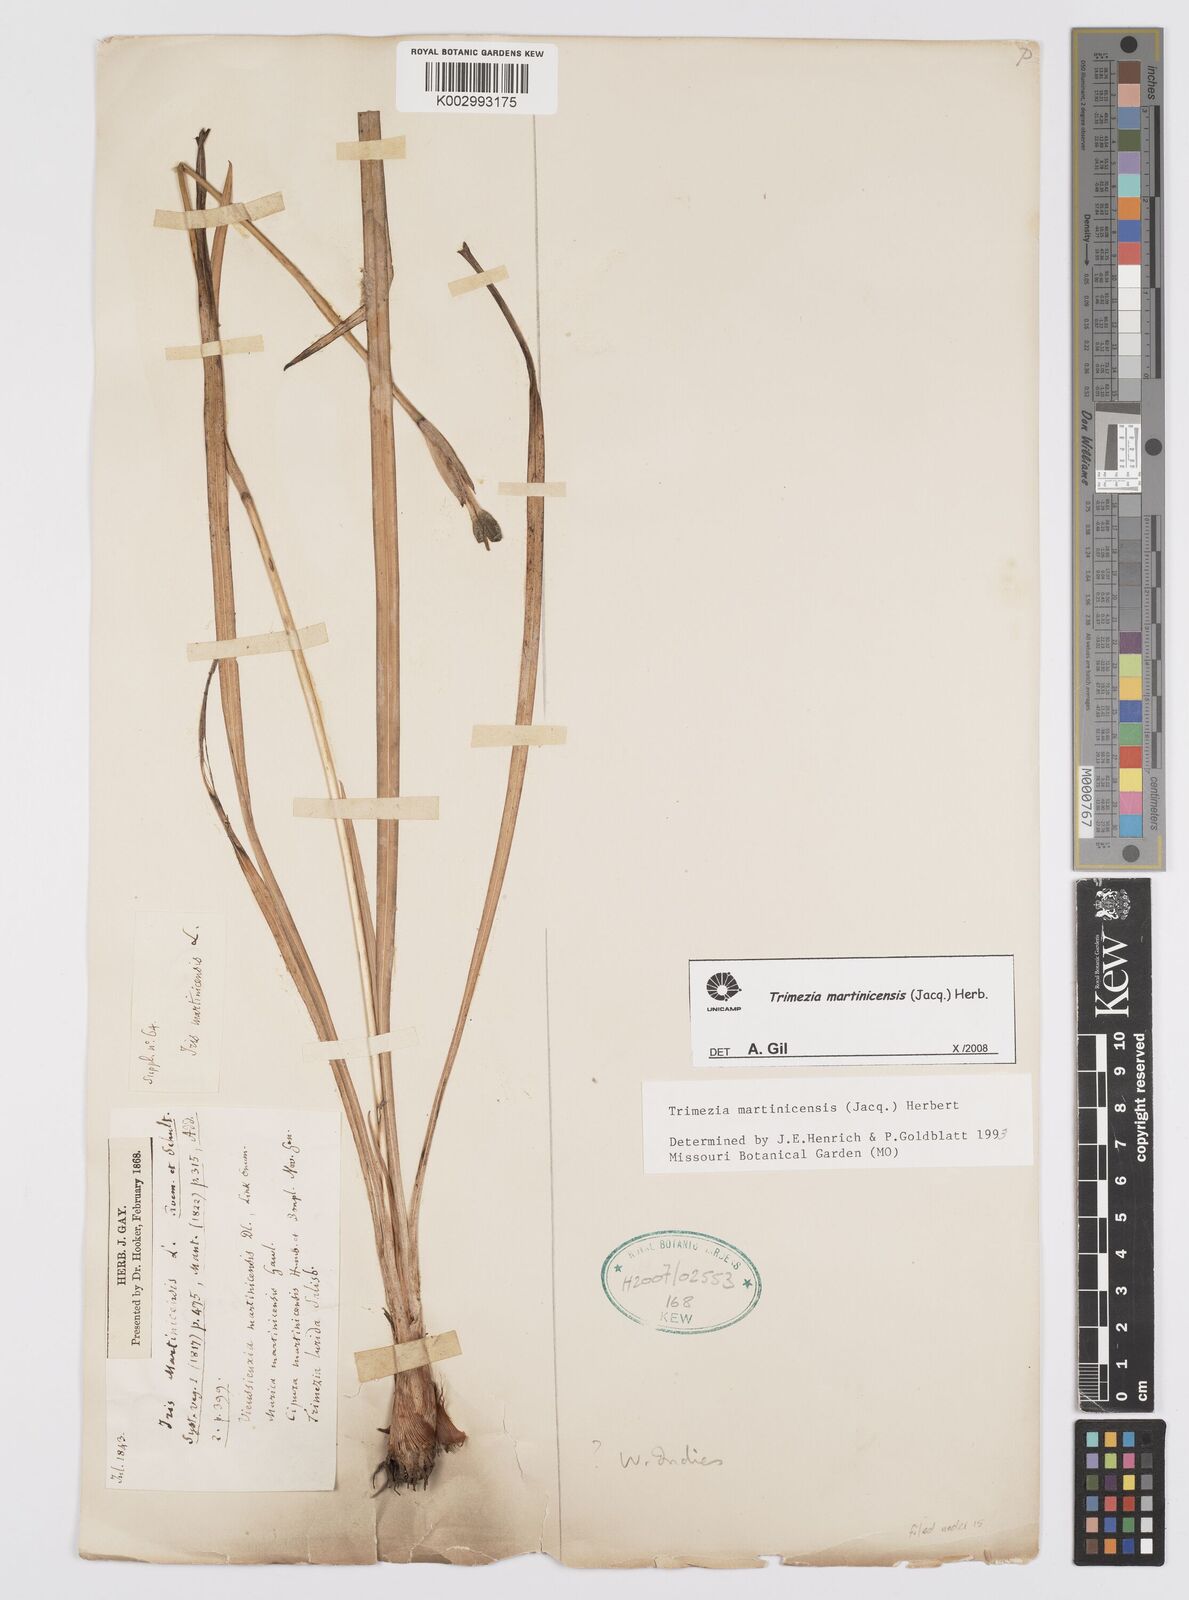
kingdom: Plantae
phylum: Tracheophyta
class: Liliopsida
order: Asparagales
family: Iridaceae
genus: Trimezia
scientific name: Trimezia
